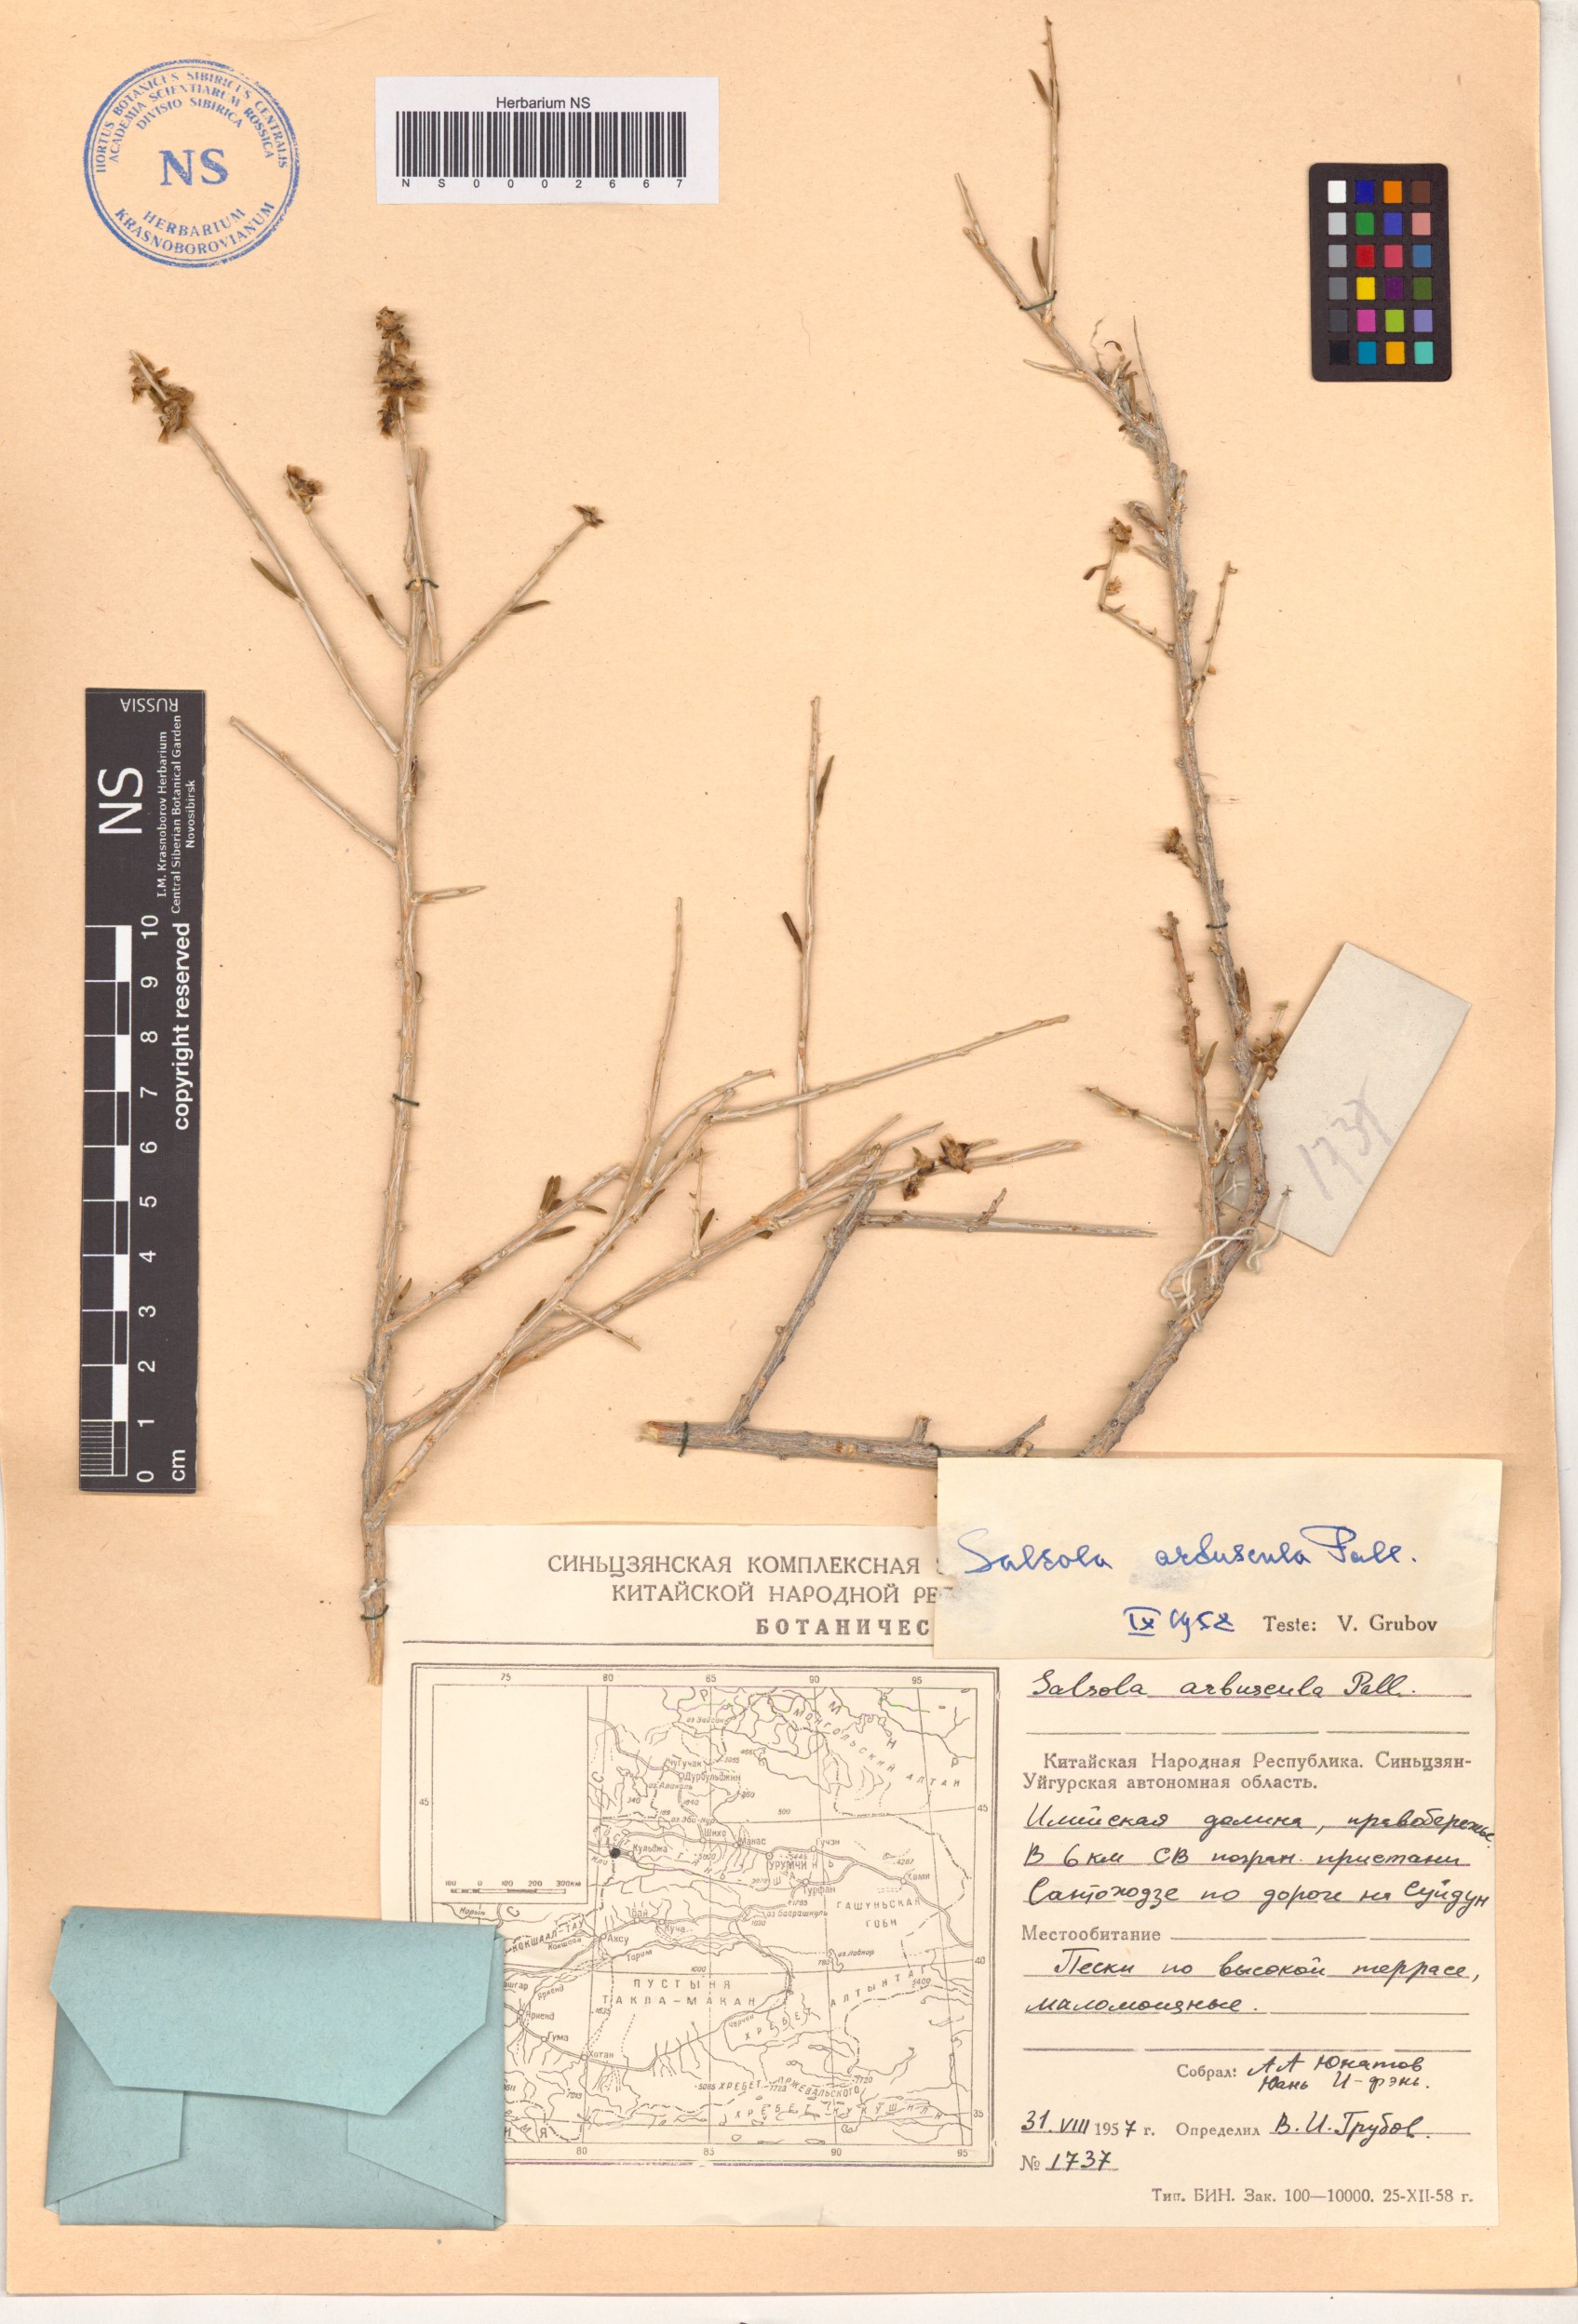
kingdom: Plantae
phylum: Tracheophyta
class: Magnoliopsida
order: Caryophyllales
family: Amaranthaceae
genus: Xylosalsola
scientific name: Xylosalsola arbuscula
